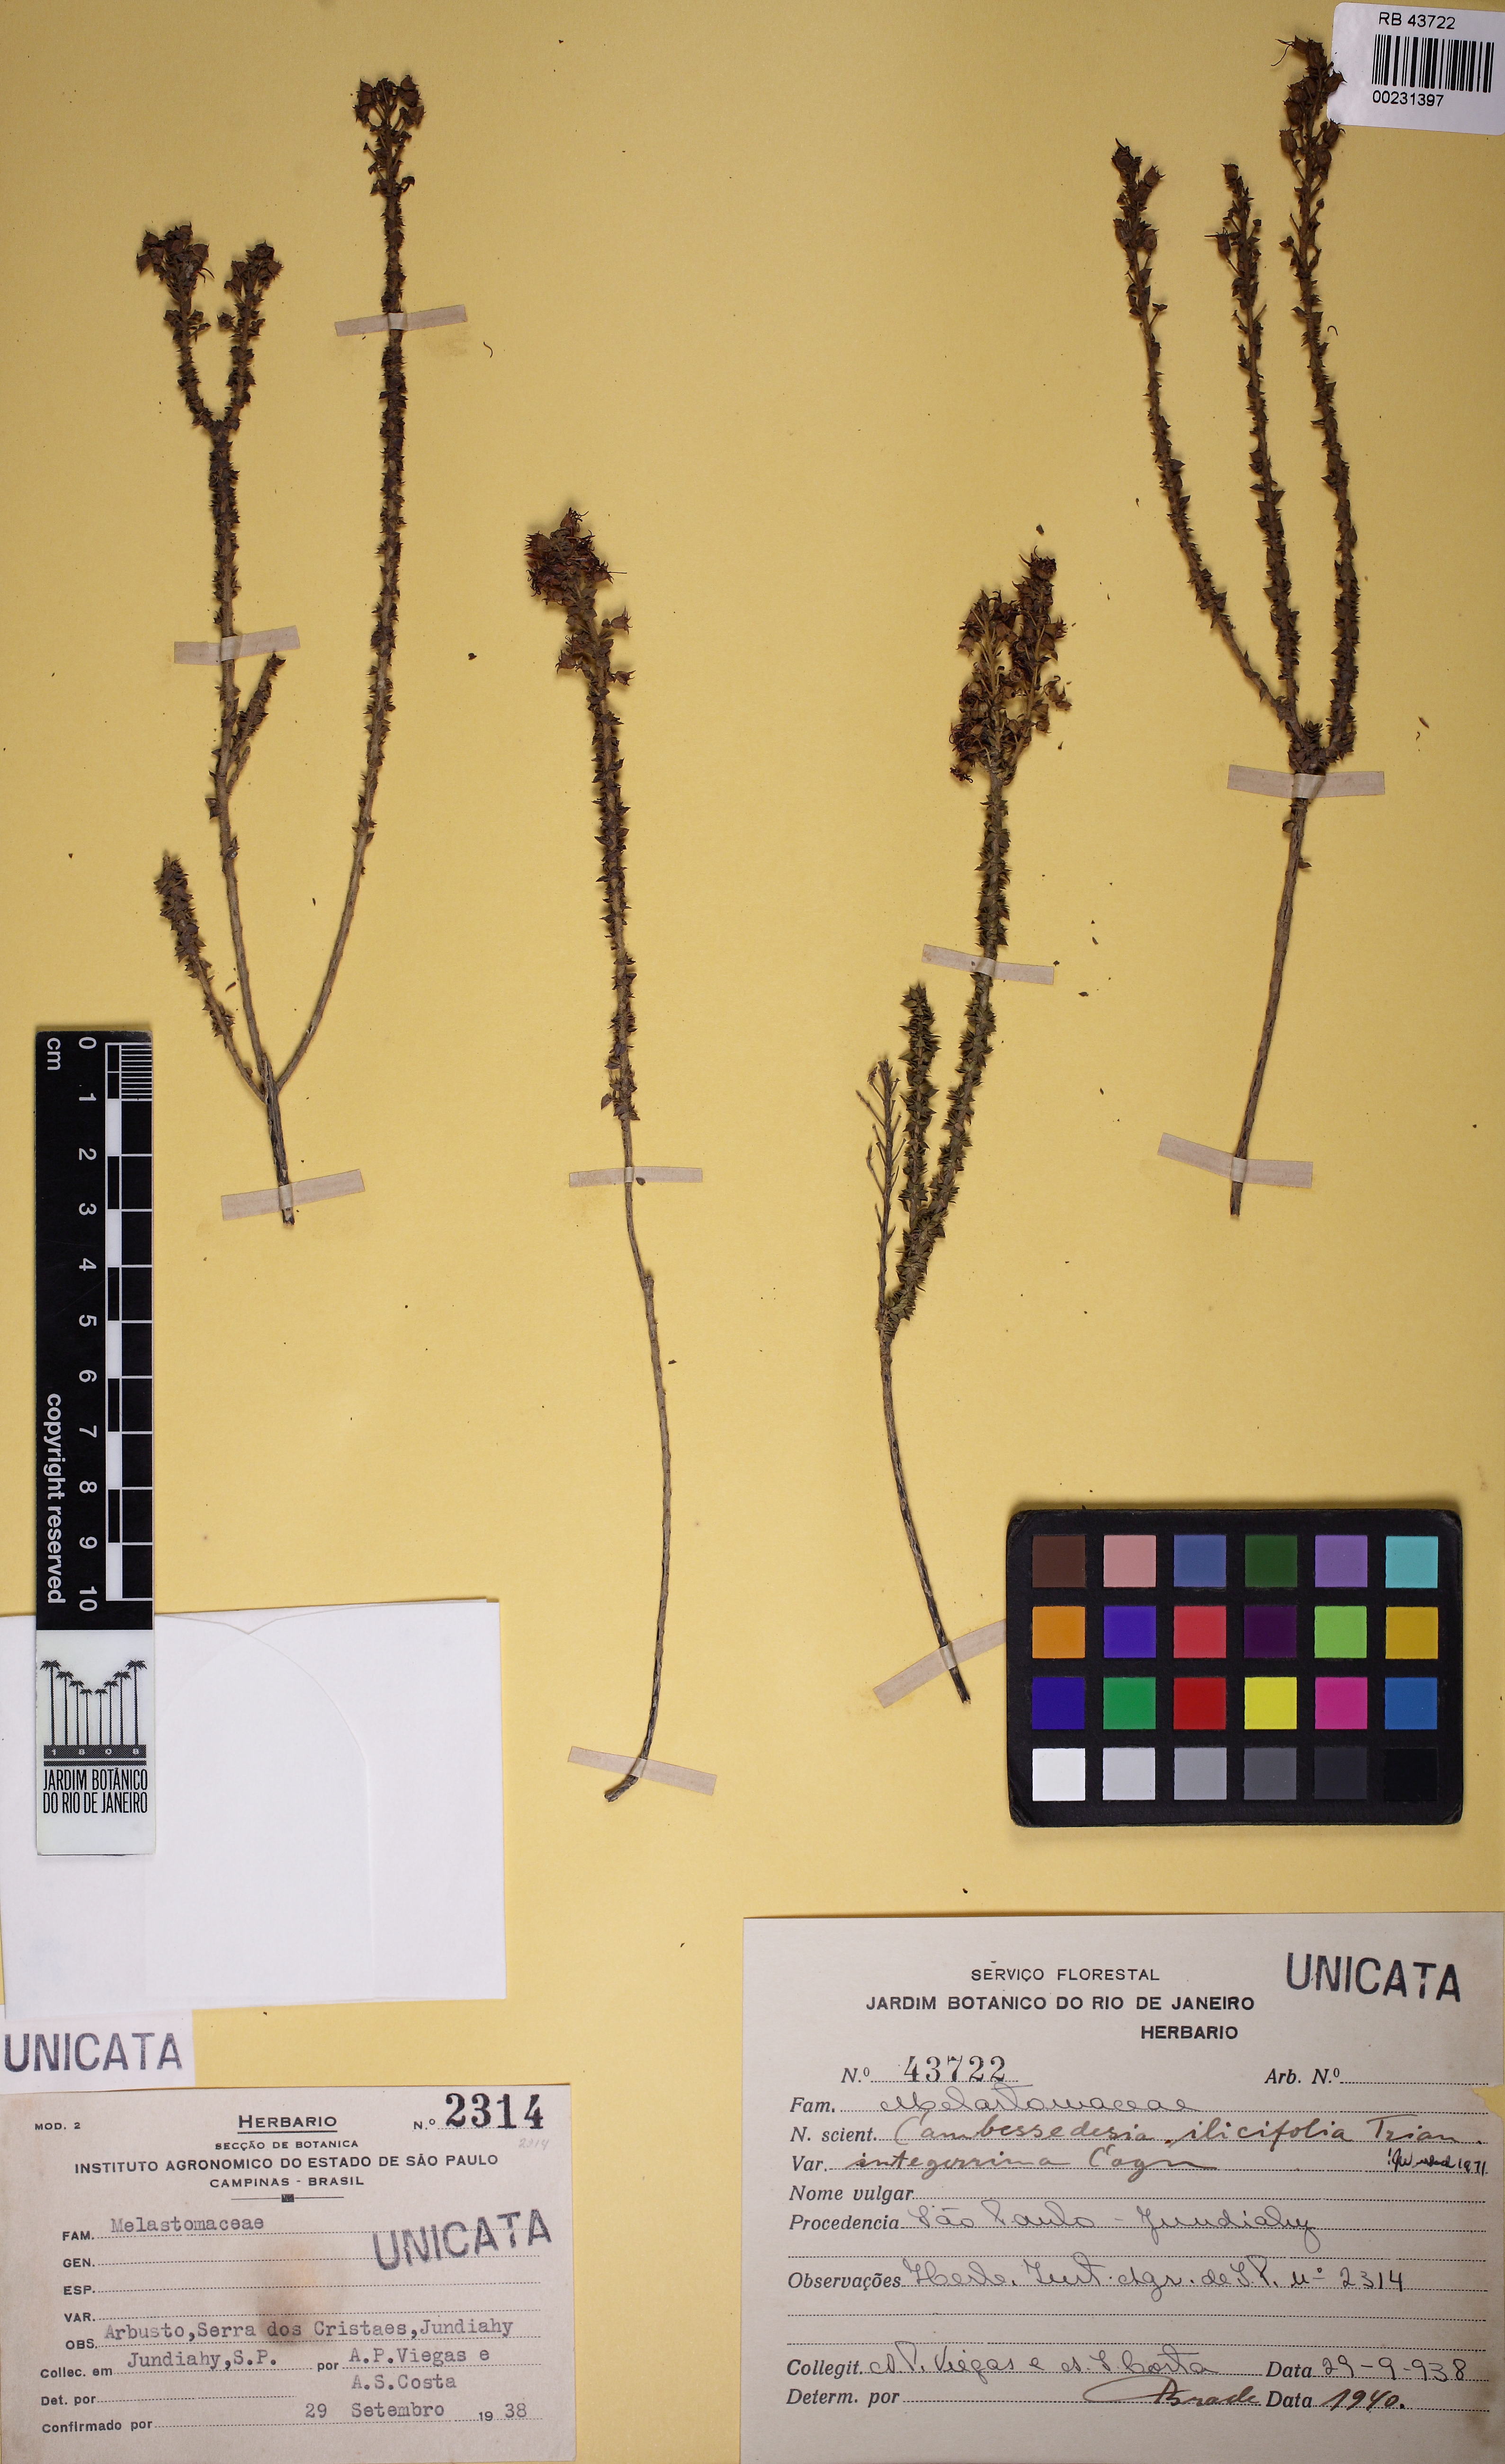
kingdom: Plantae
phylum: Tracheophyta
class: Magnoliopsida
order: Myrtales
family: Melastomataceae
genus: Cambessedesia
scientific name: Cambessedesia espora
